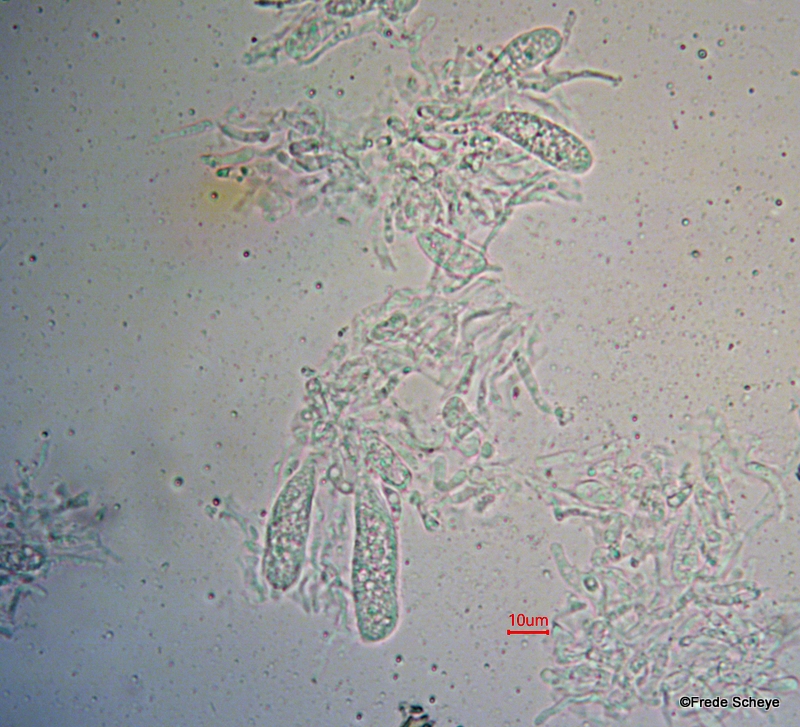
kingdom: Fungi
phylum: Ascomycota
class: Dothideomycetes
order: Pleosporales
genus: Rhopographus
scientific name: Rhopographus filicinus
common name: Bracken map
